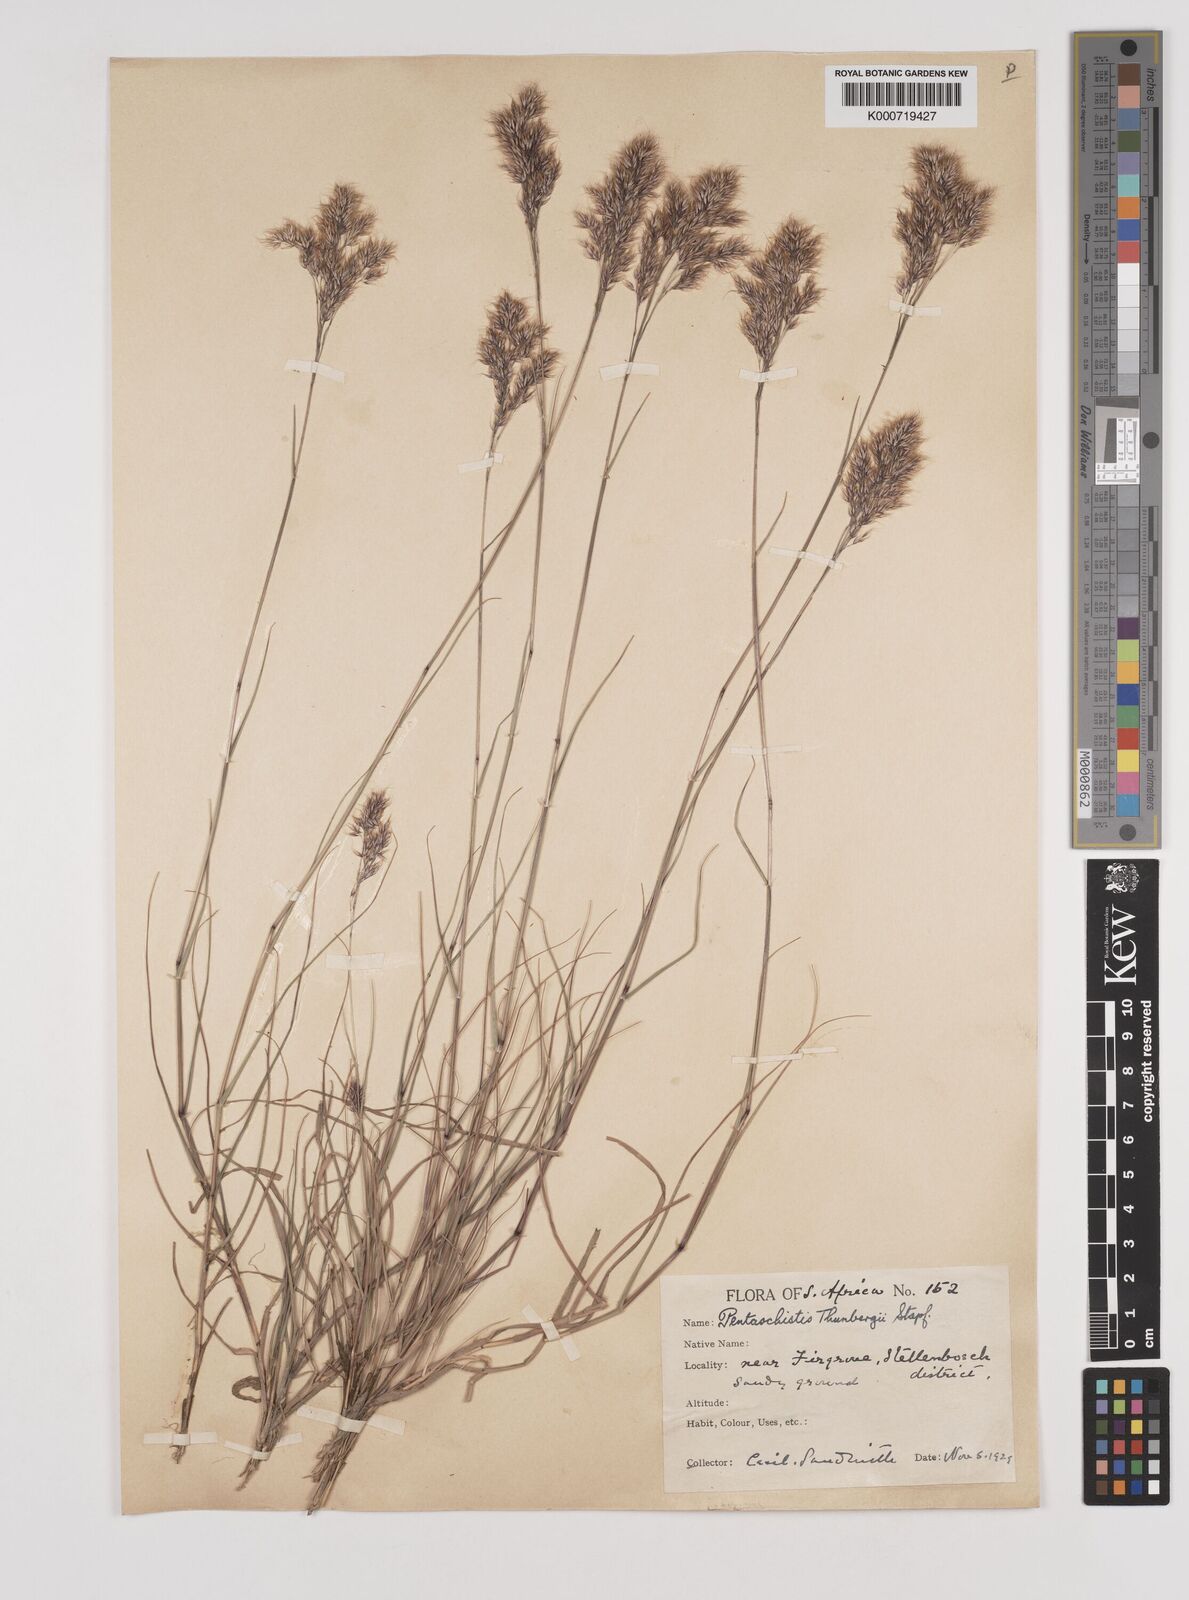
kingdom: Plantae
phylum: Tracheophyta
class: Liliopsida
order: Poales
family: Poaceae
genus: Pentameris
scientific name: Pentameris triseta
